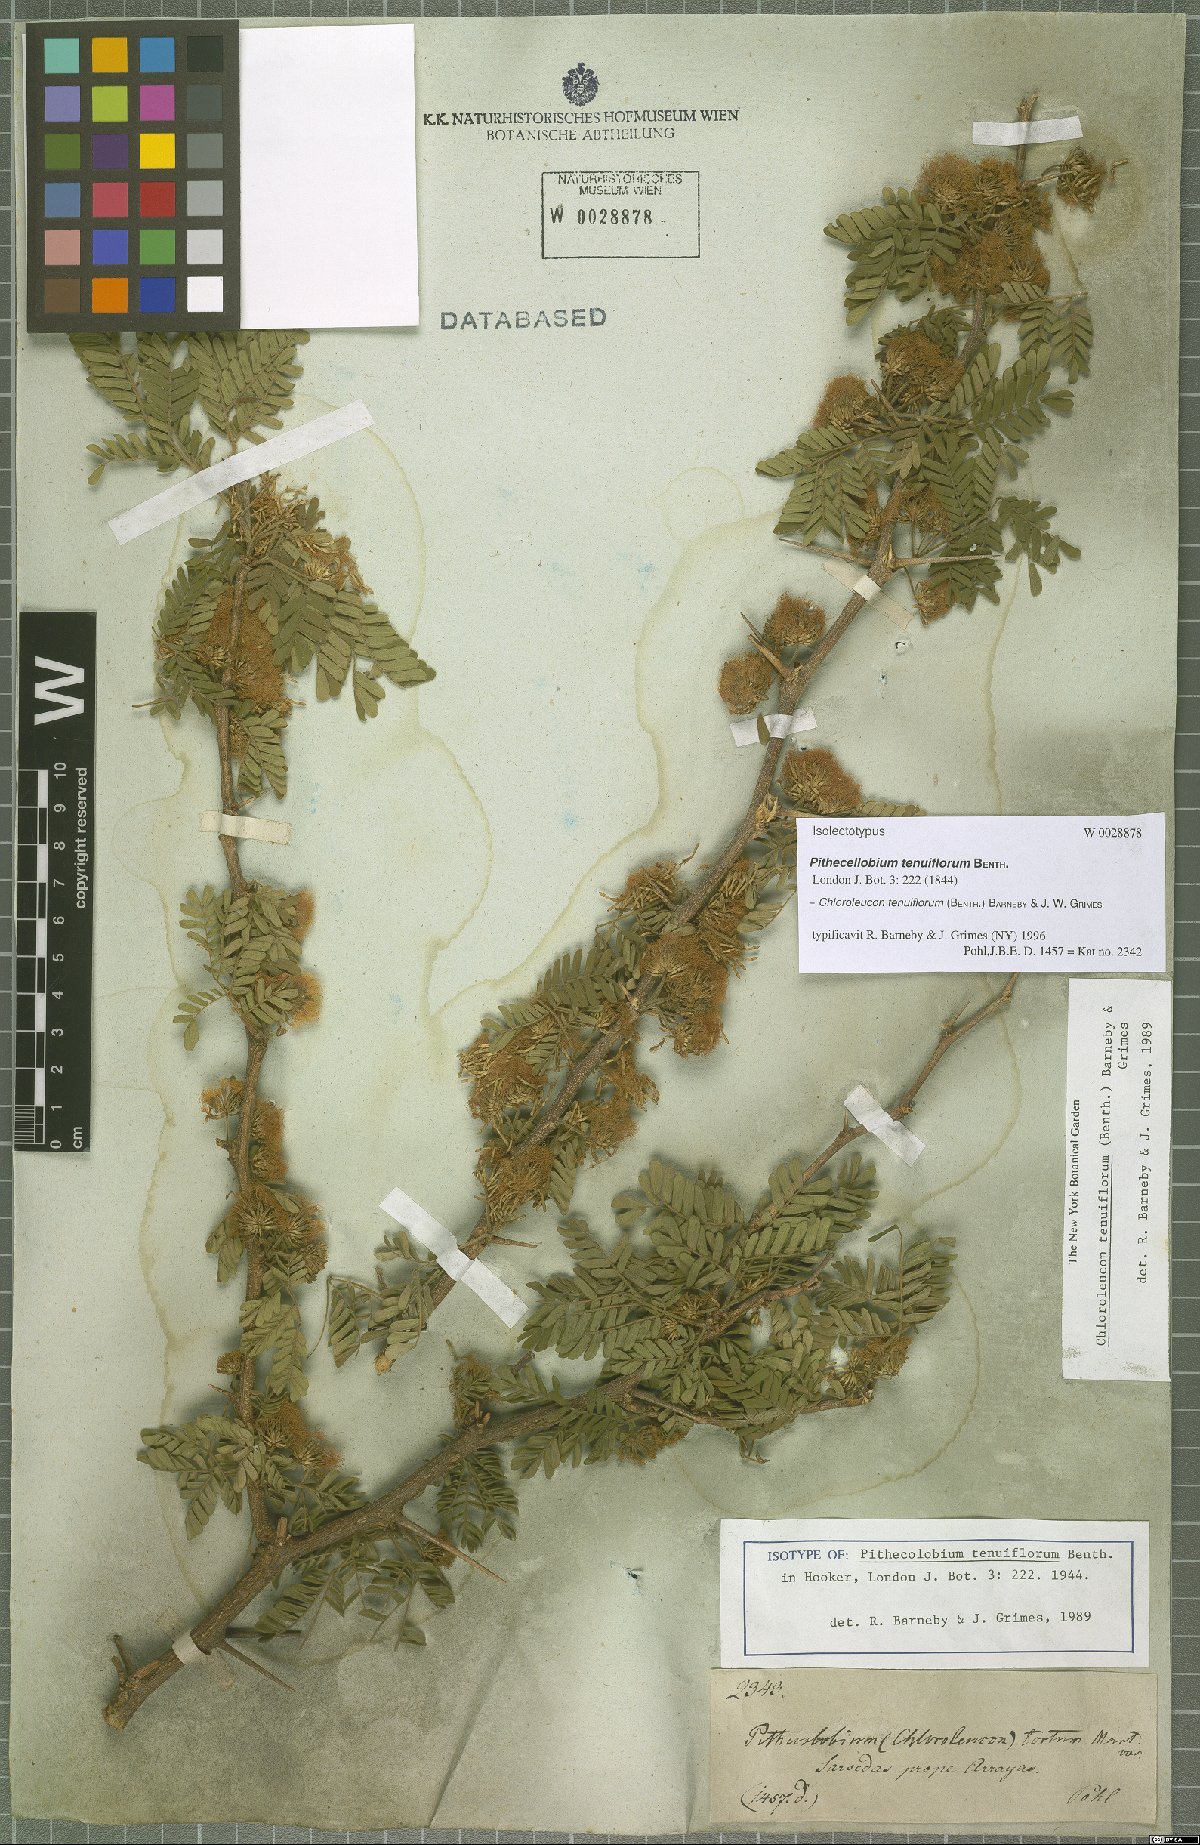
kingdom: Plantae
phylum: Tracheophyta
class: Magnoliopsida
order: Fabales
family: Fabaceae
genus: Chloroleucon
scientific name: Chloroleucon tenuiflorum
